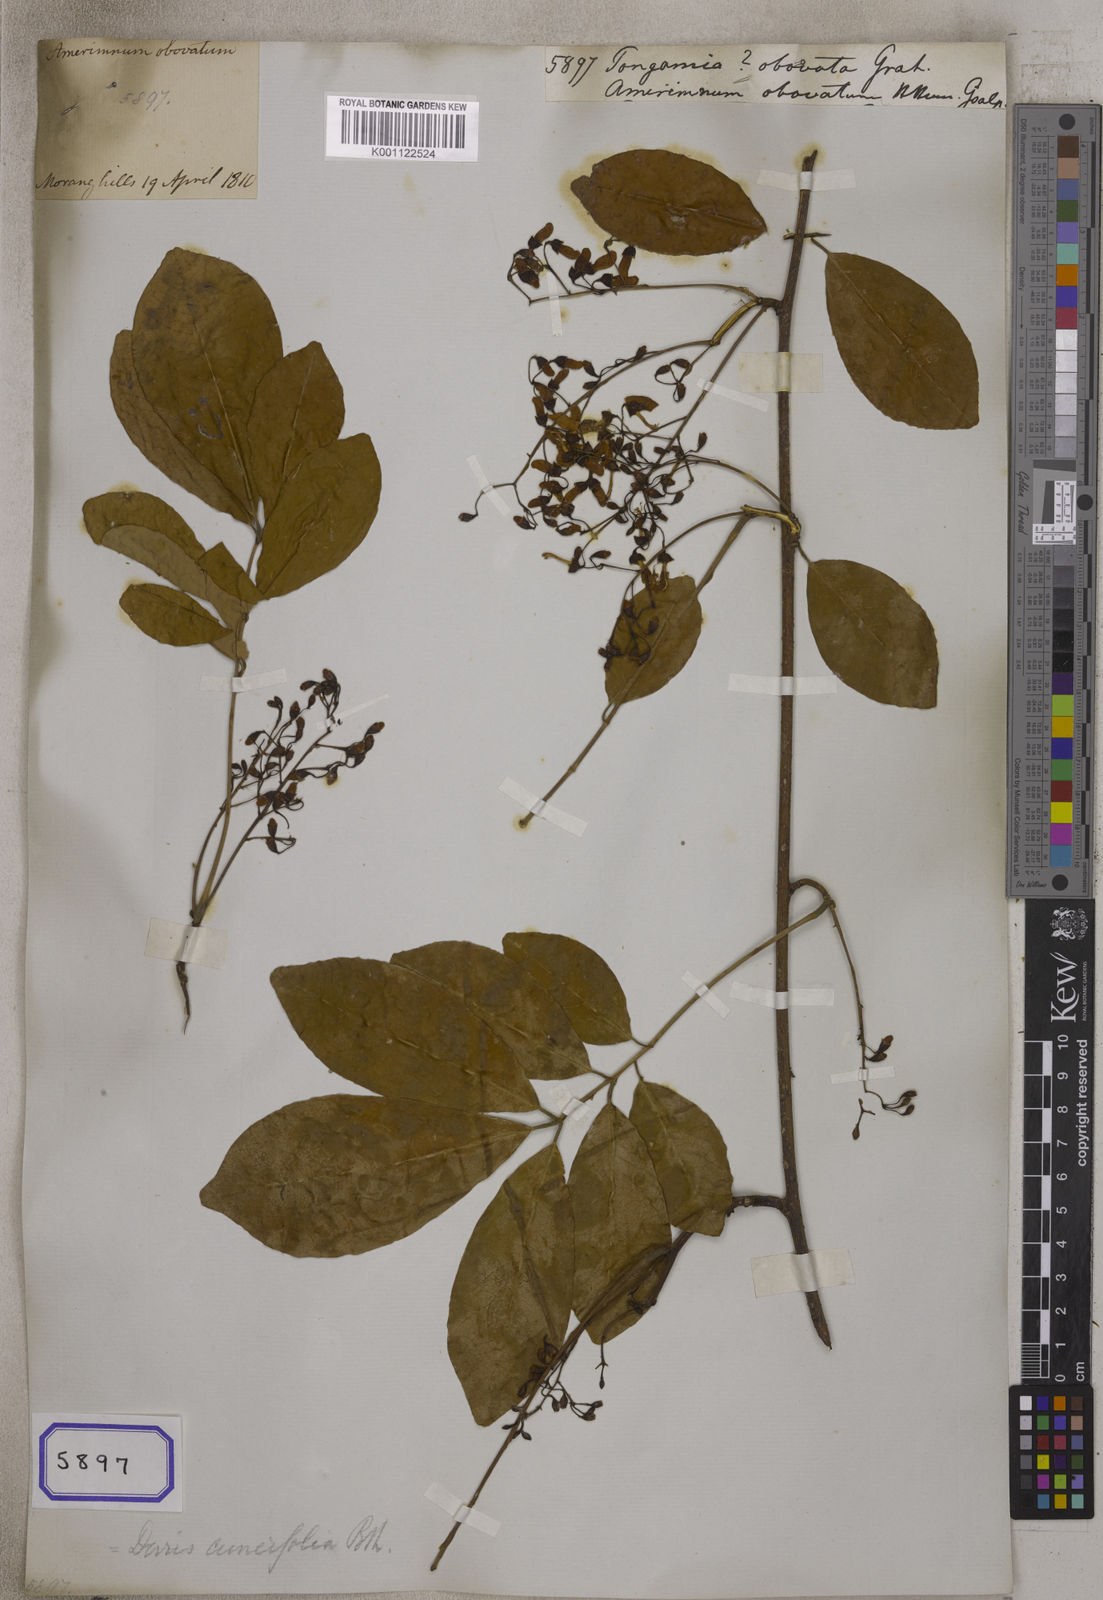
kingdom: Plantae
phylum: Tracheophyta
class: Magnoliopsida
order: Fabales
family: Fabaceae
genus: Derris
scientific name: Derris cuneifolia
